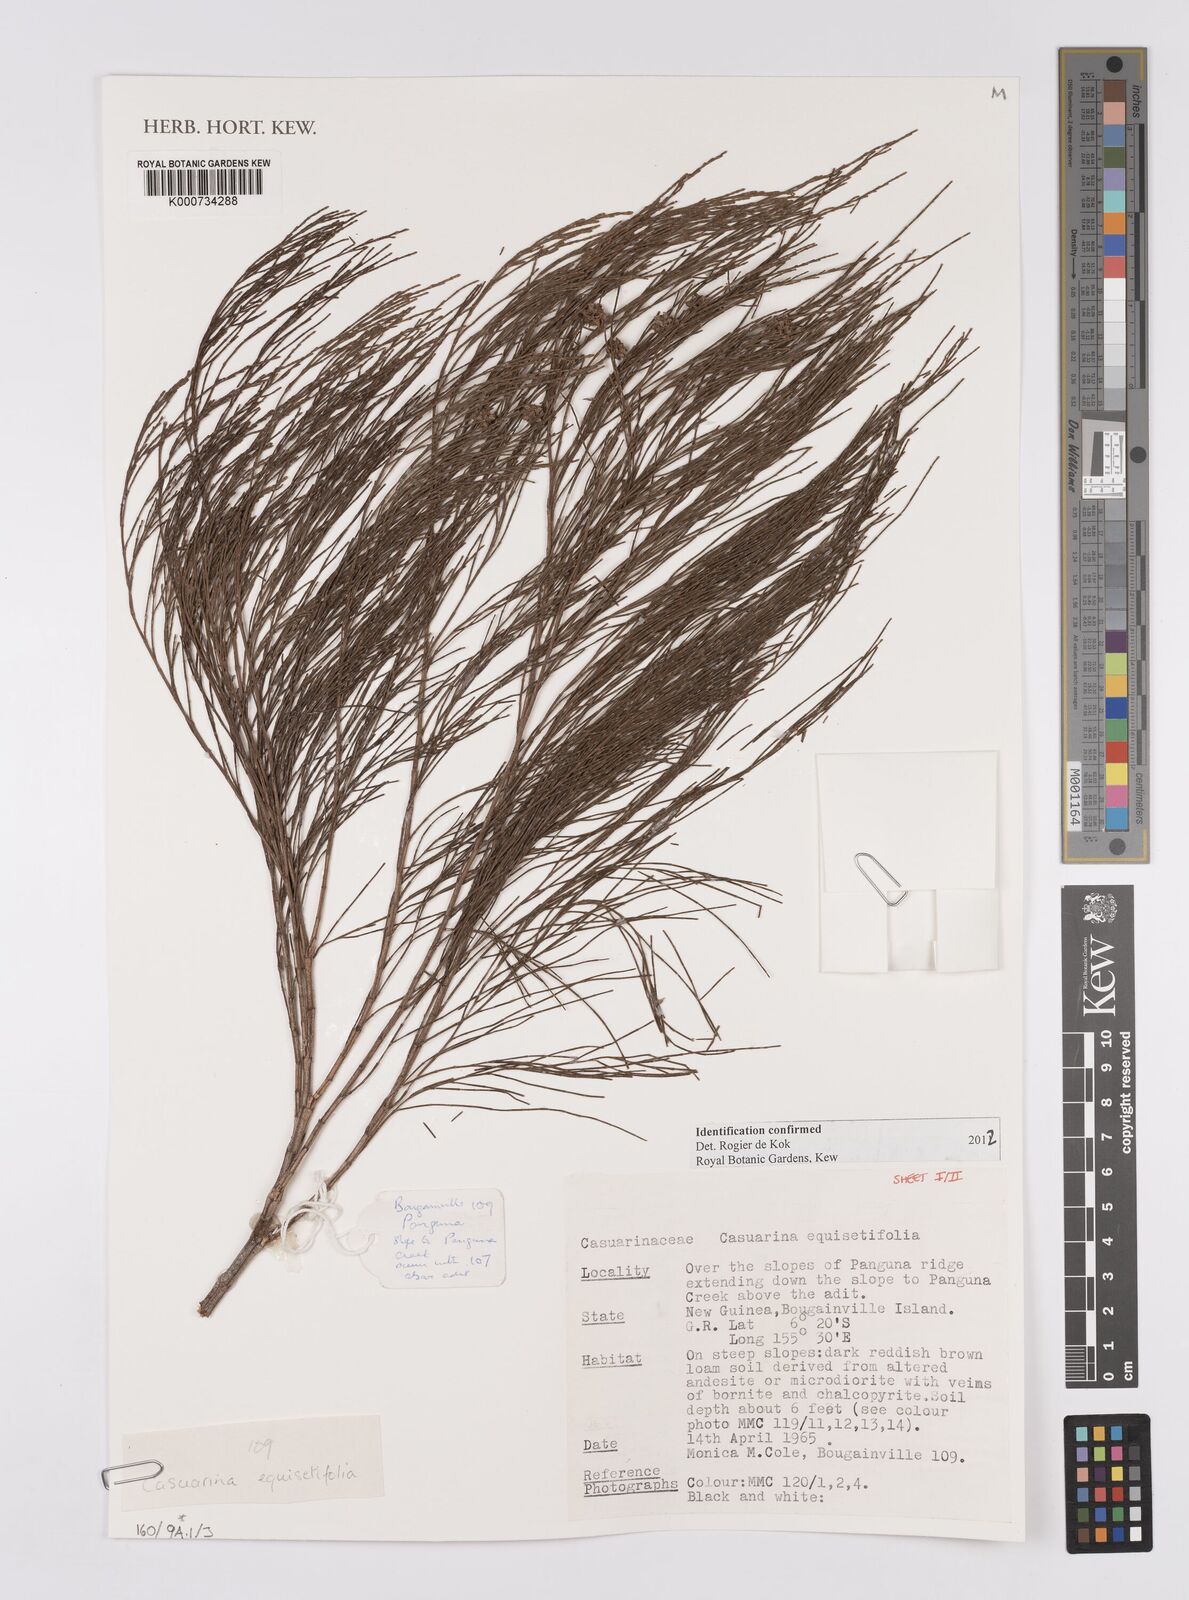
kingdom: Plantae
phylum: Tracheophyta
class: Magnoliopsida
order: Fagales
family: Casuarinaceae
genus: Casuarina
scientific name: Casuarina equisetifolia
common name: Beach sheoak
